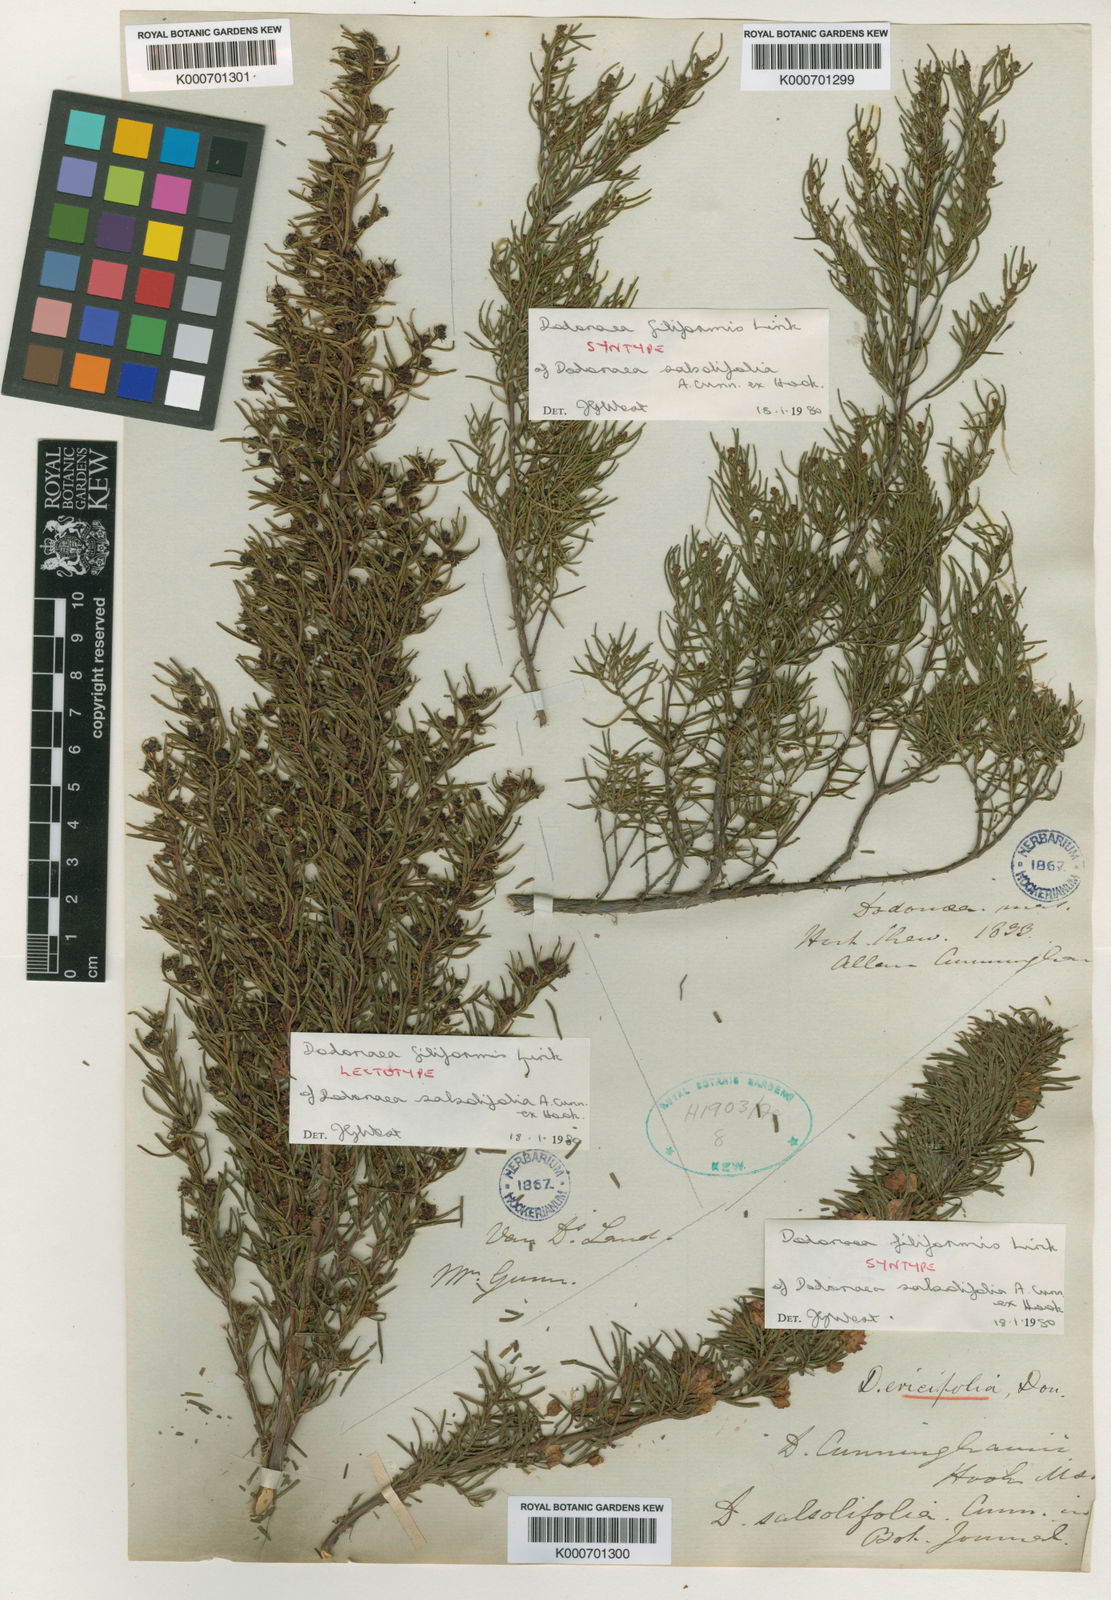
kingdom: Plantae
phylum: Tracheophyta
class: Magnoliopsida
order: Sapindales
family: Sapindaceae
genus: Dodonaea
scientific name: Dodonaea filiformis
